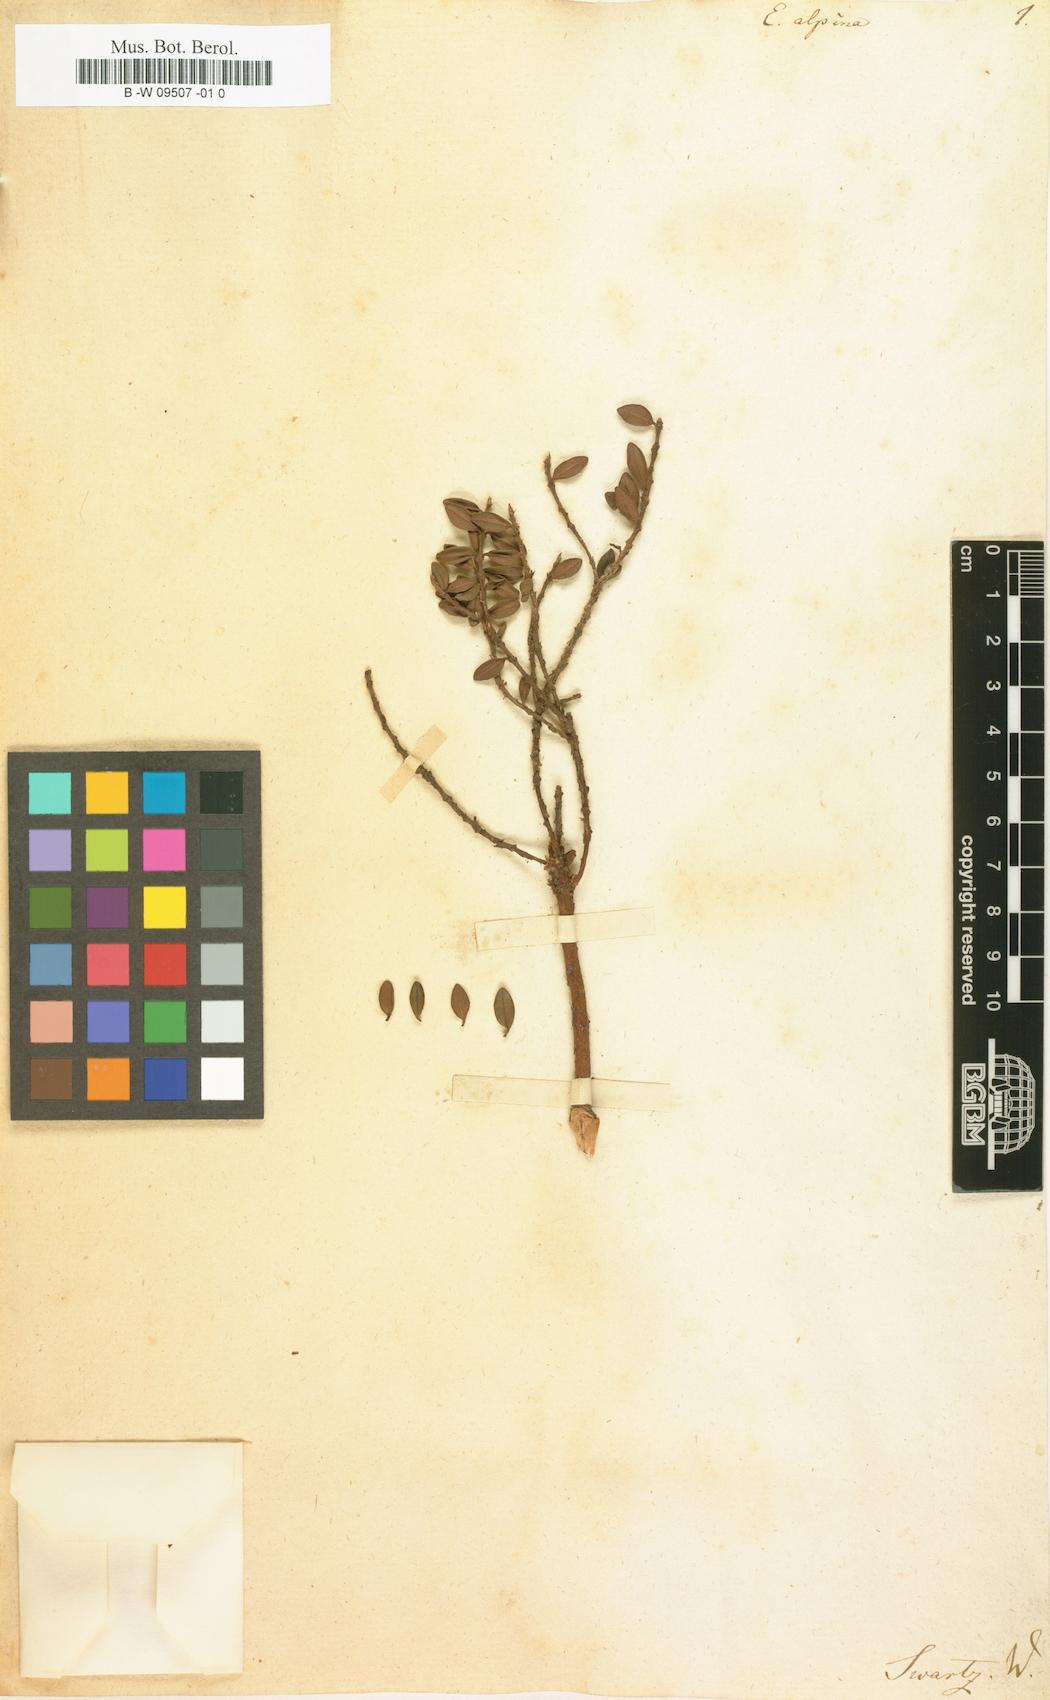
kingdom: Plantae
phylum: Tracheophyta
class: Magnoliopsida
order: Myrtales
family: Myrtaceae
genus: Eugenia
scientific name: Eugenia alpina
